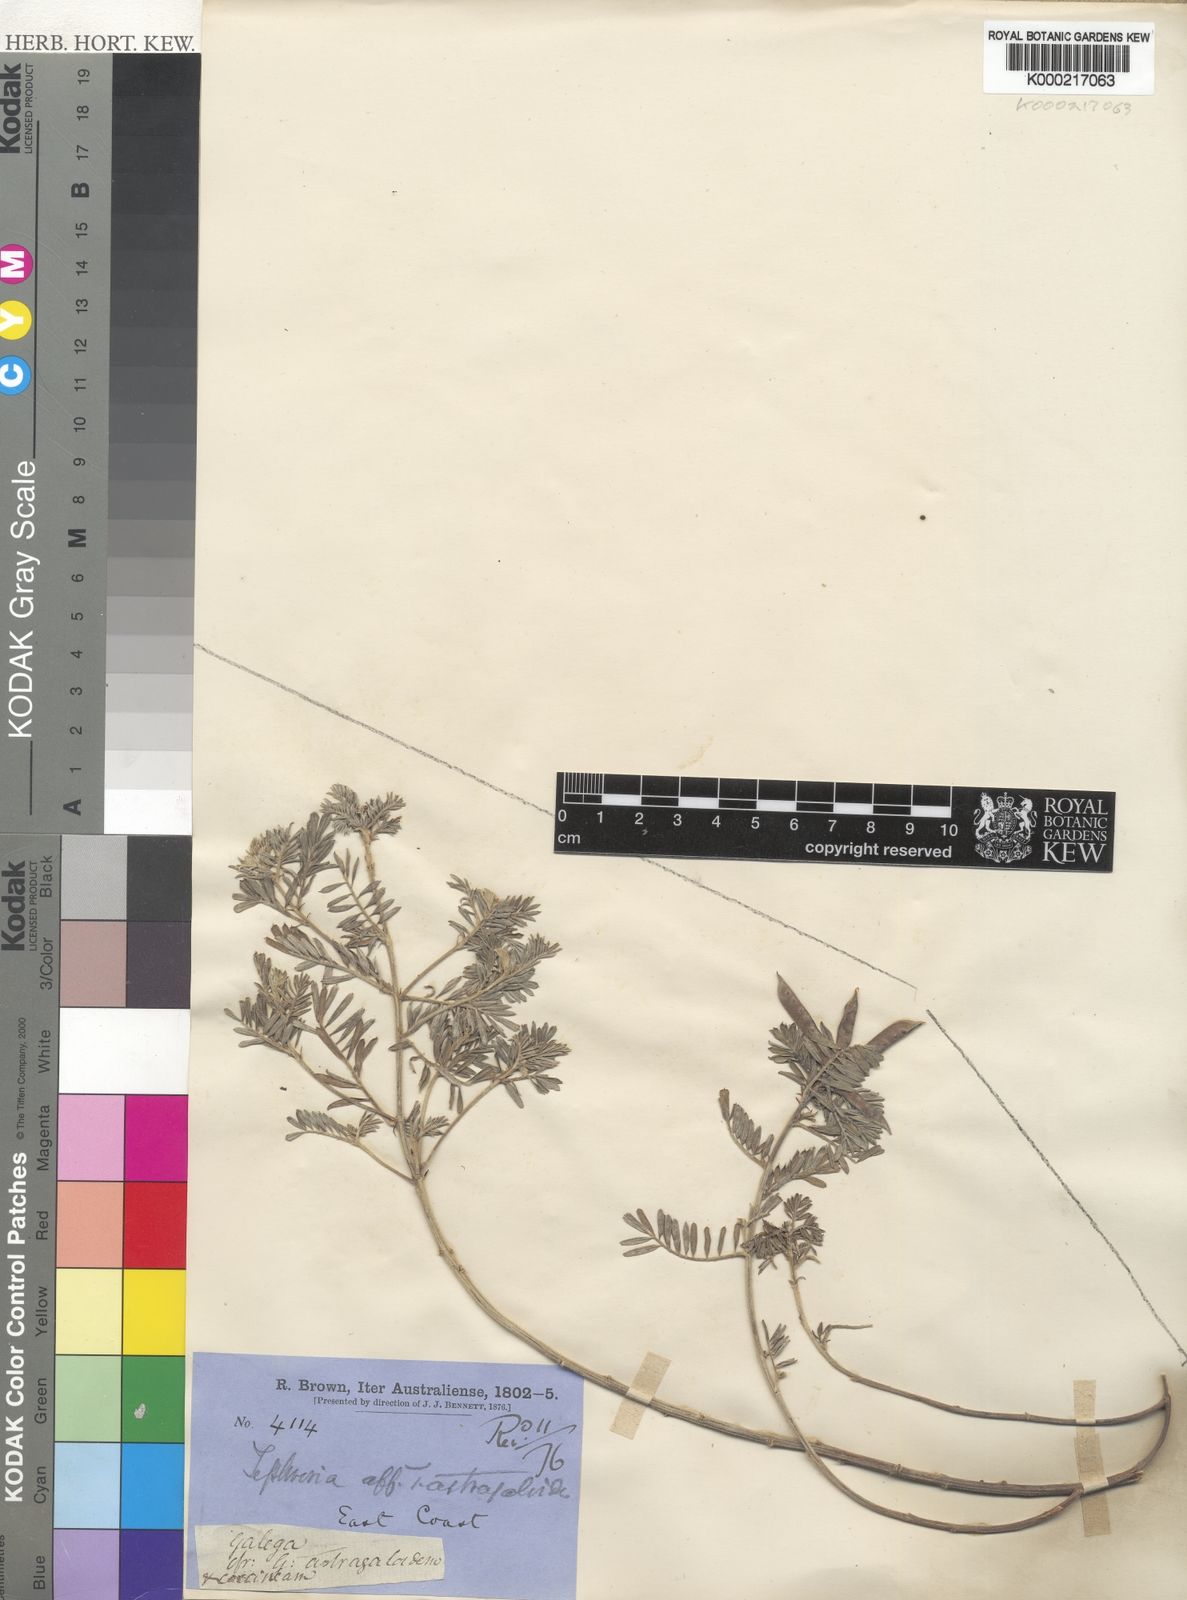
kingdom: Plantae
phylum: Tracheophyta
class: Magnoliopsida
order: Fabales
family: Fabaceae
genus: Tephrosia
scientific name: Tephrosia astragaloides
